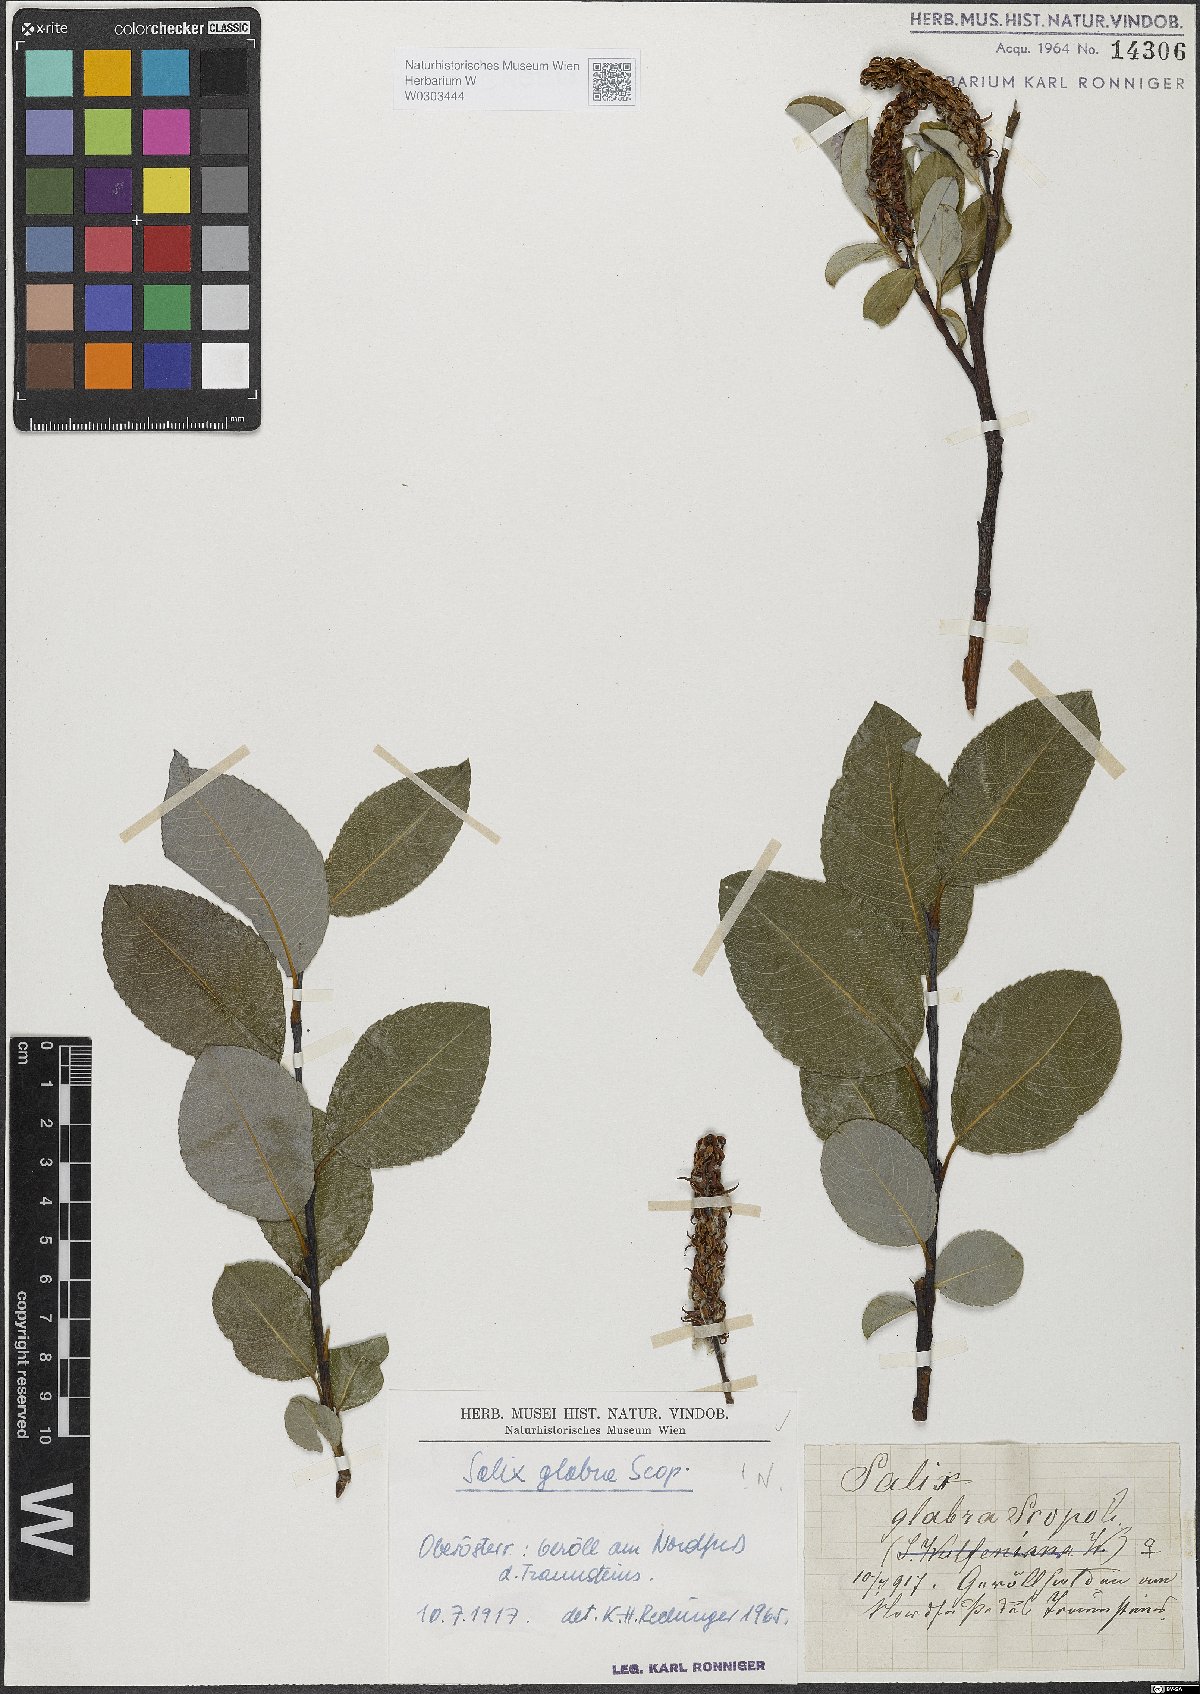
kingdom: Plantae
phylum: Tracheophyta
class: Magnoliopsida
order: Malpighiales
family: Salicaceae
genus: Salix
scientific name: Salix glabra
